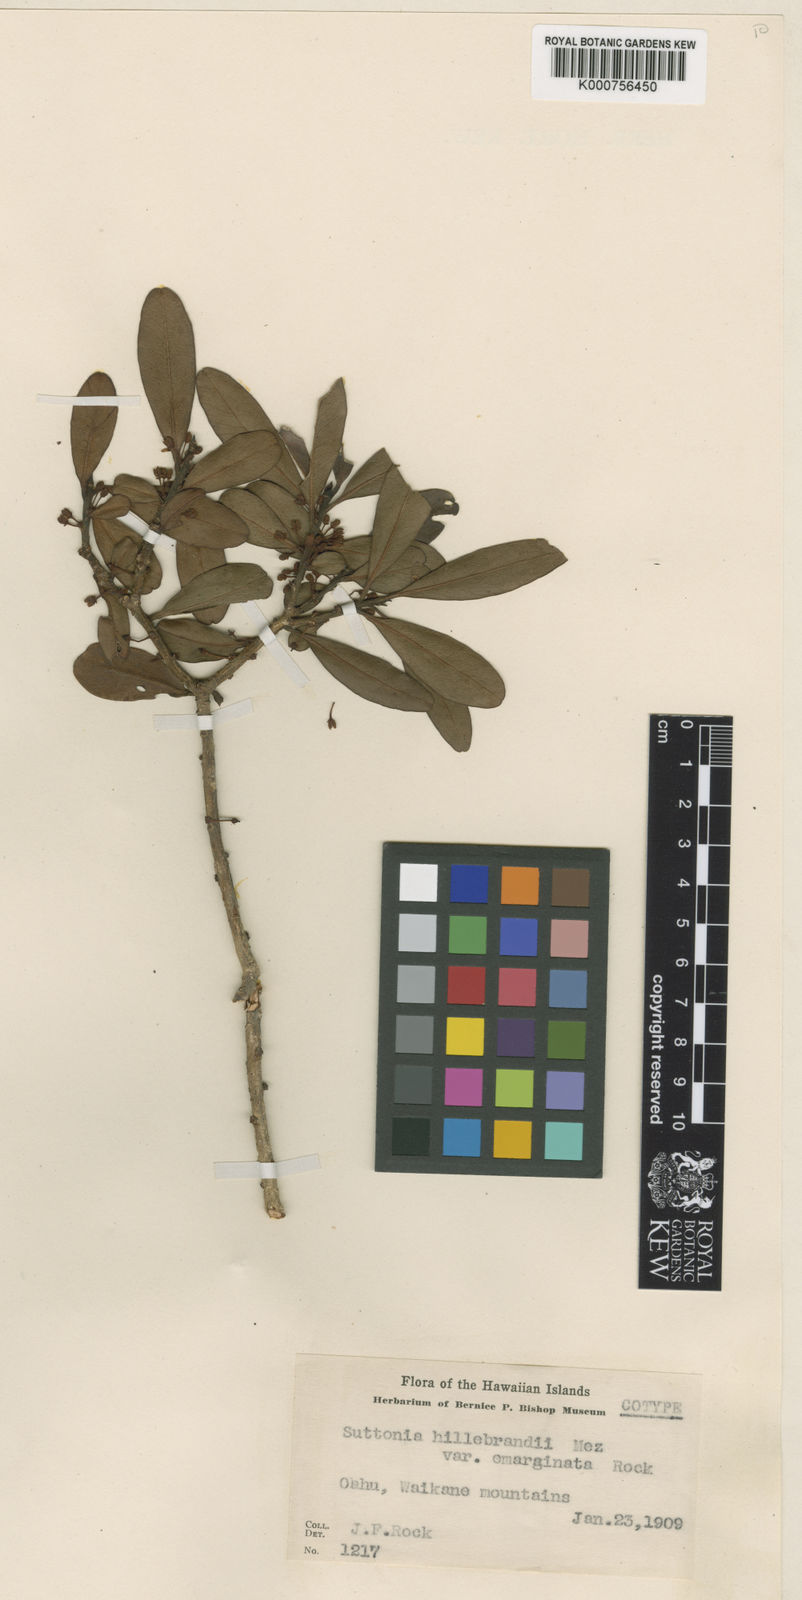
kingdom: Plantae
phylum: Tracheophyta
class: Magnoliopsida
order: Ericales
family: Primulaceae
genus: Myrsine
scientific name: Myrsine
